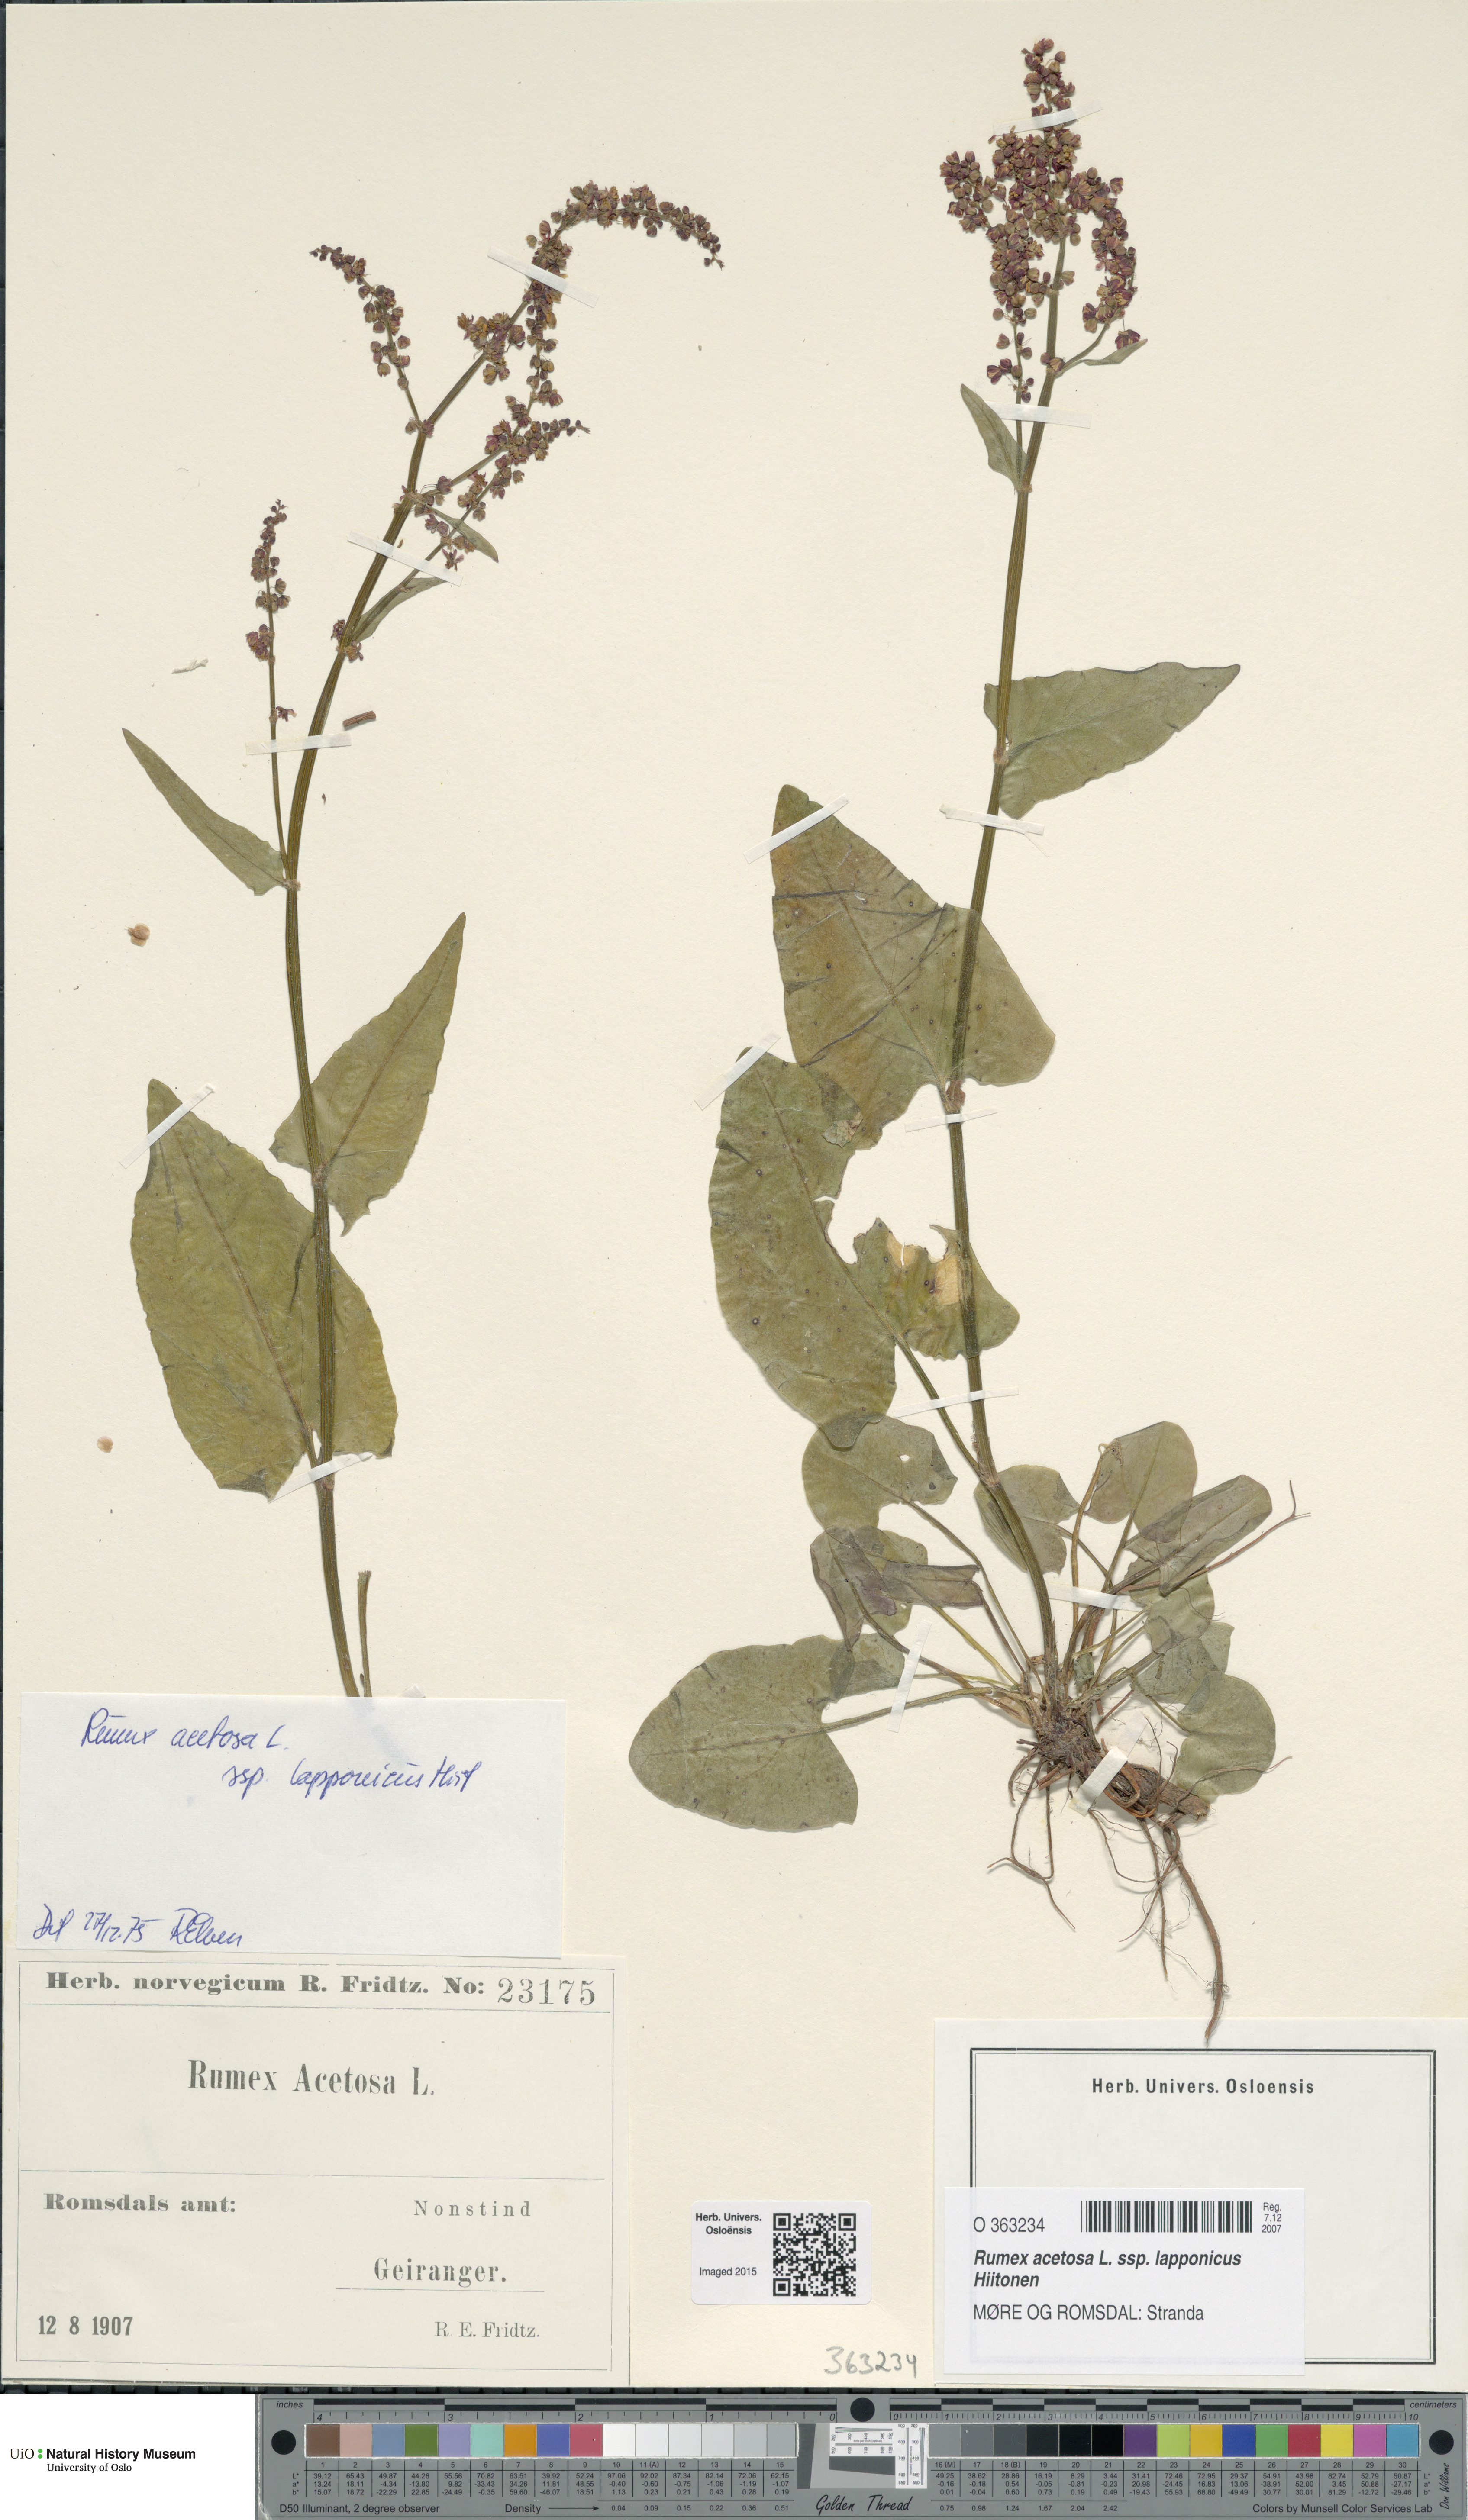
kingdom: Plantae
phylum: Tracheophyta
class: Magnoliopsida
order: Caryophyllales
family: Polygonaceae
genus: Rumex
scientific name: Rumex lapponicus
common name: Lapland mountain sorrel
